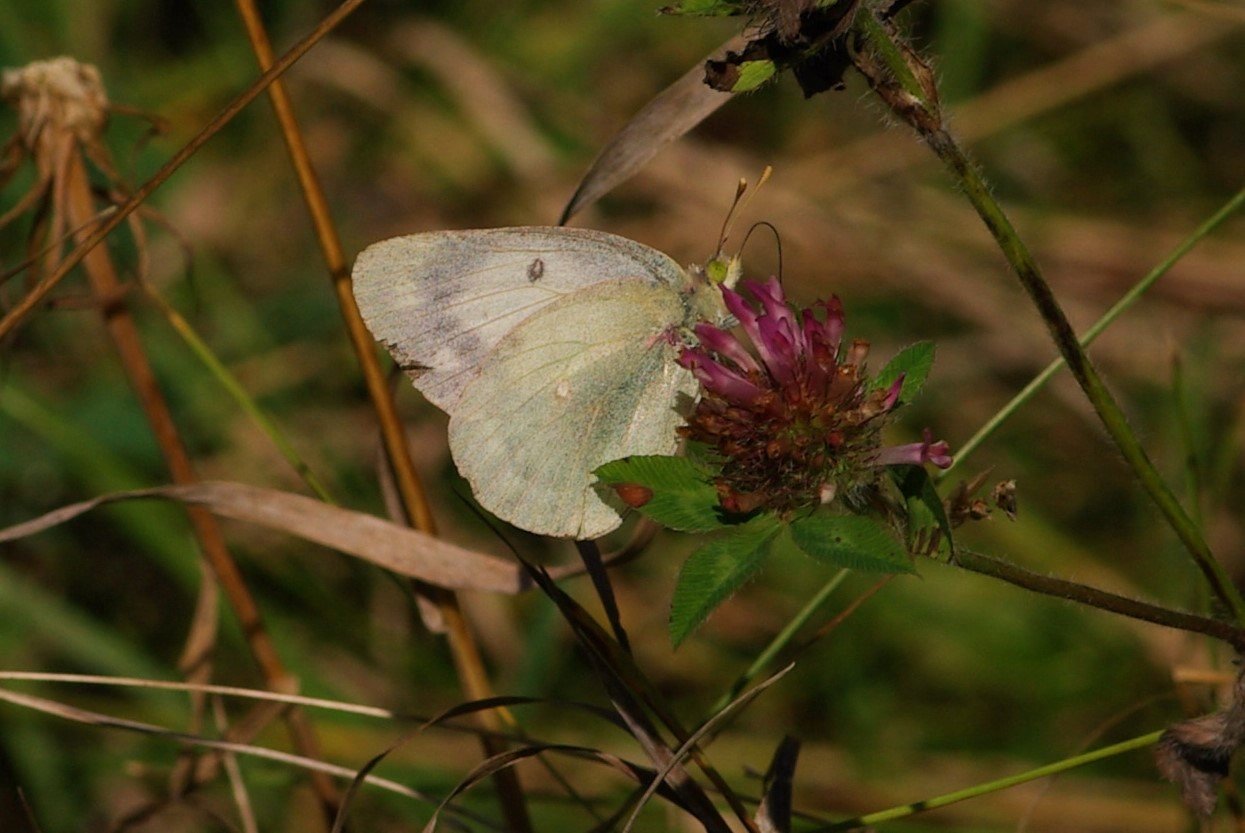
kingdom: Animalia
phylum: Arthropoda
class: Insecta
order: Lepidoptera
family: Pieridae
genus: Colias
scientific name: Colias philodice
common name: Clouded Sulphur
